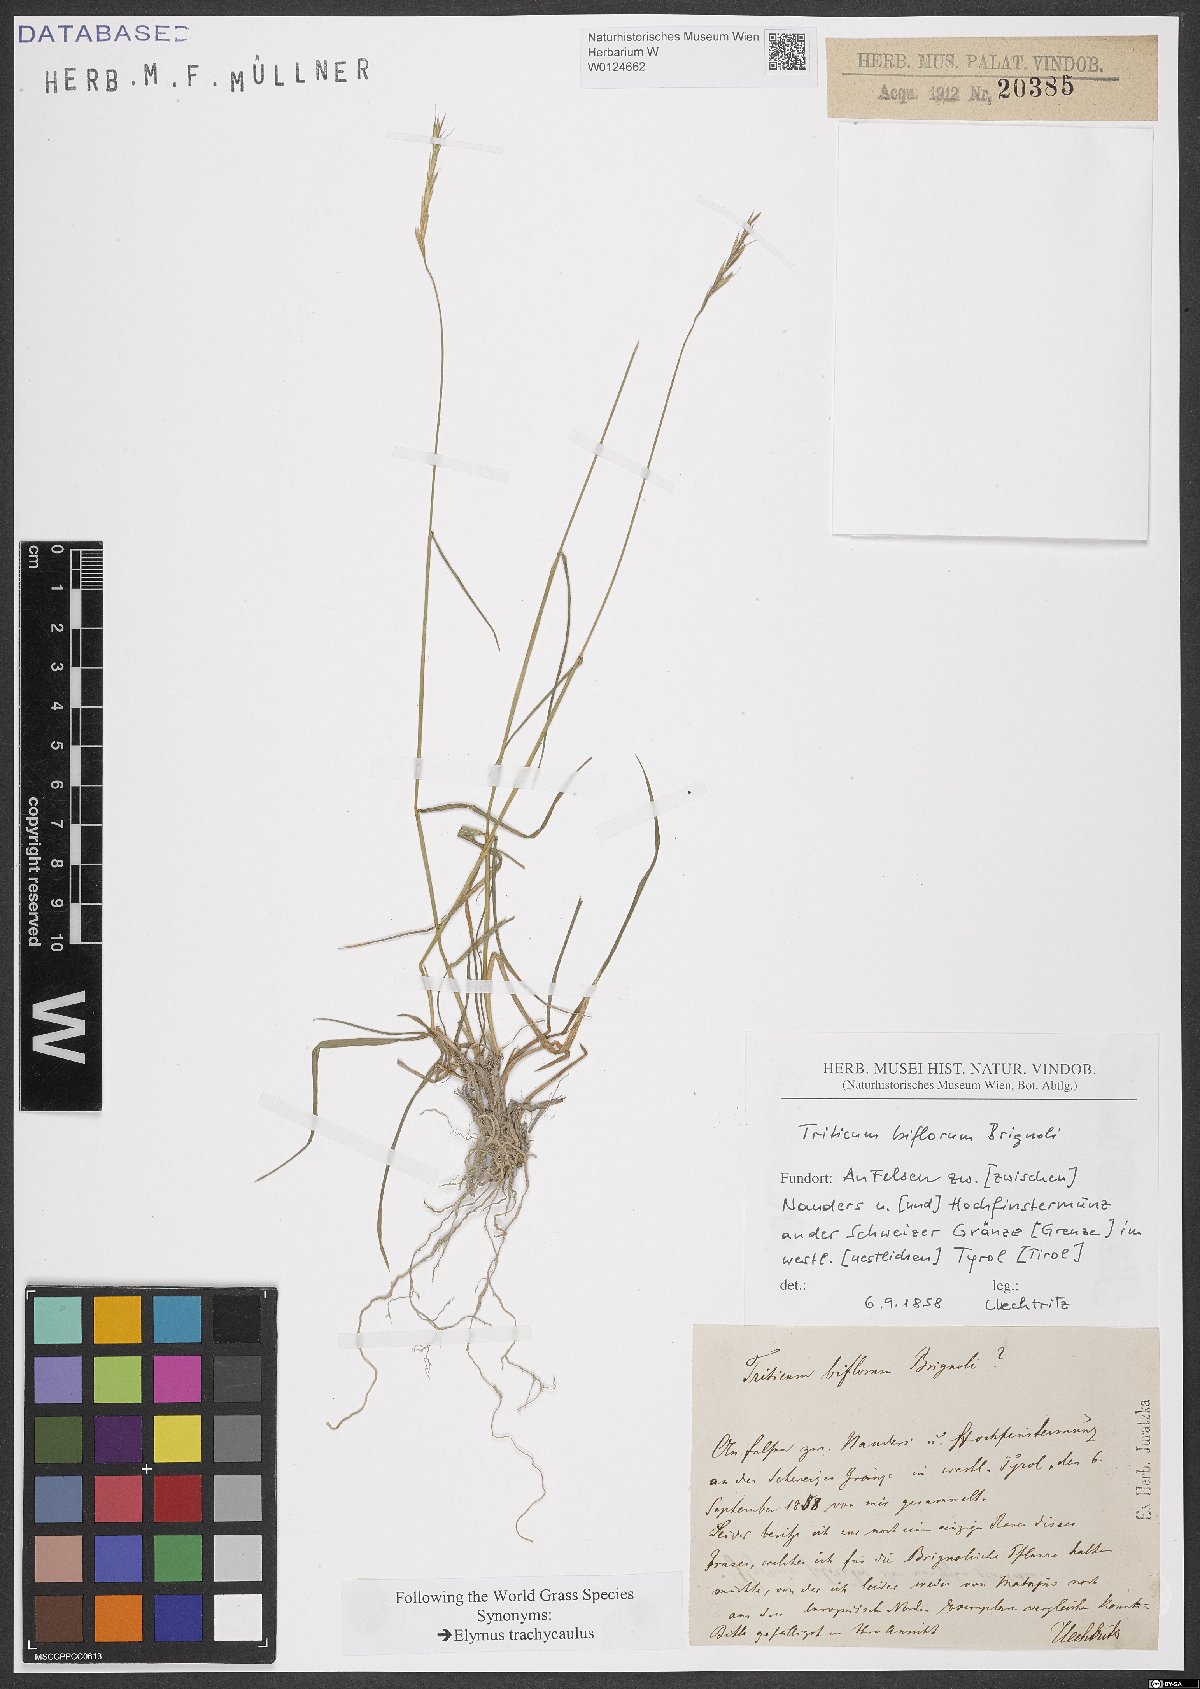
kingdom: Plantae
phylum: Tracheophyta
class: Liliopsida
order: Poales
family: Poaceae
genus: Elymus
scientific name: Elymus violaceus
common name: Arctic wheatgrass
